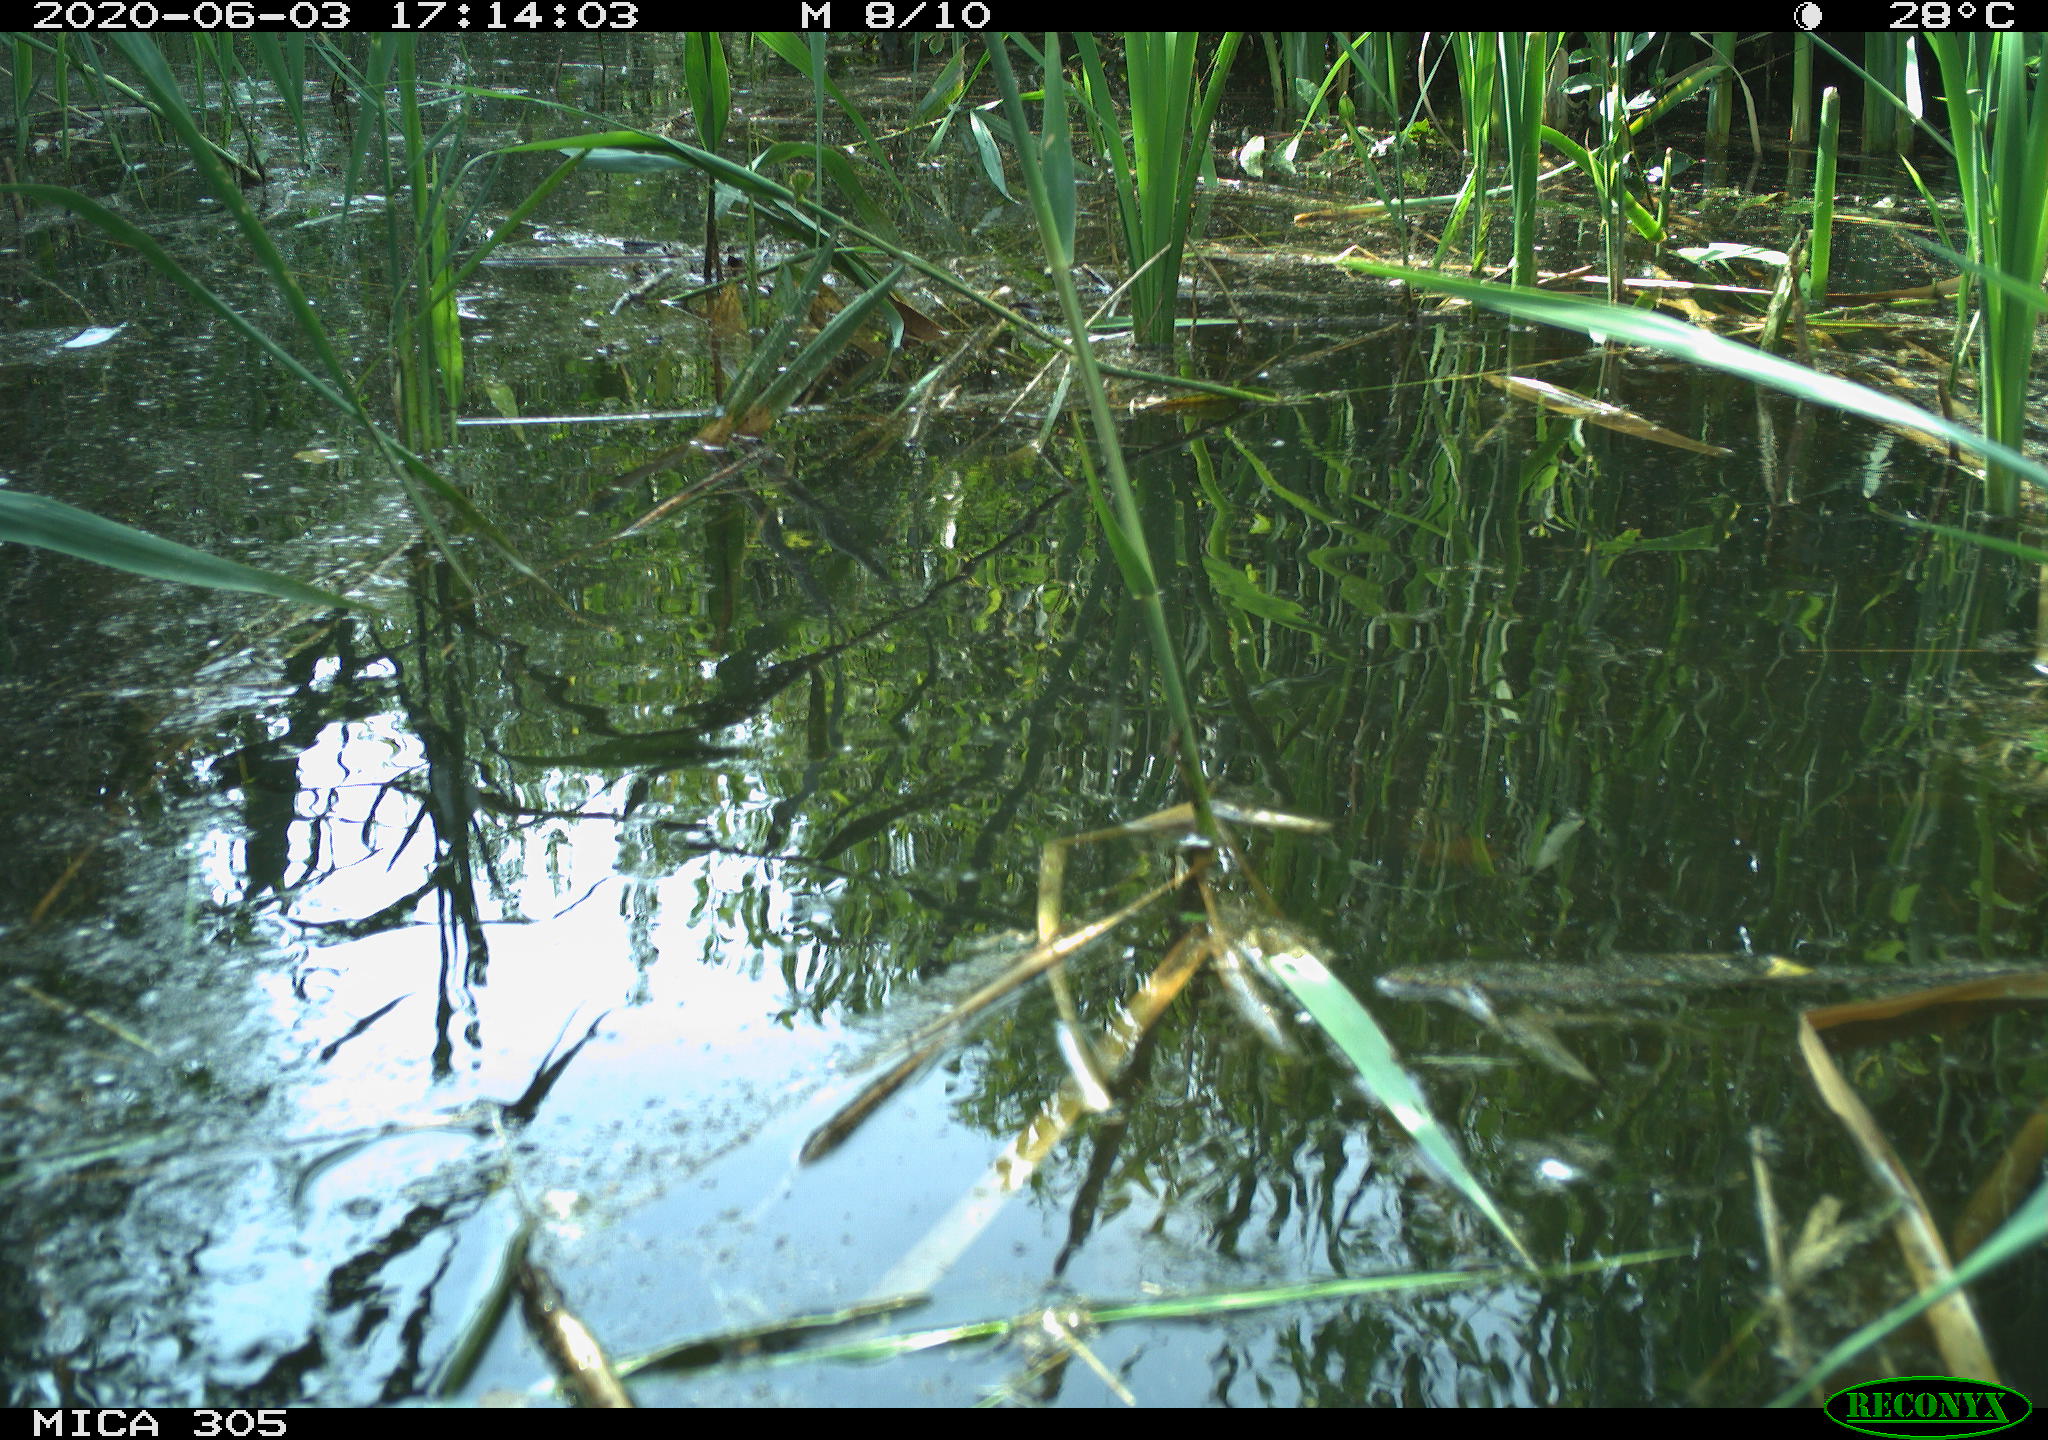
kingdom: Animalia
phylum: Chordata
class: Aves
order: Anseriformes
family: Anatidae
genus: Anas
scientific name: Anas platyrhynchos
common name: Mallard
